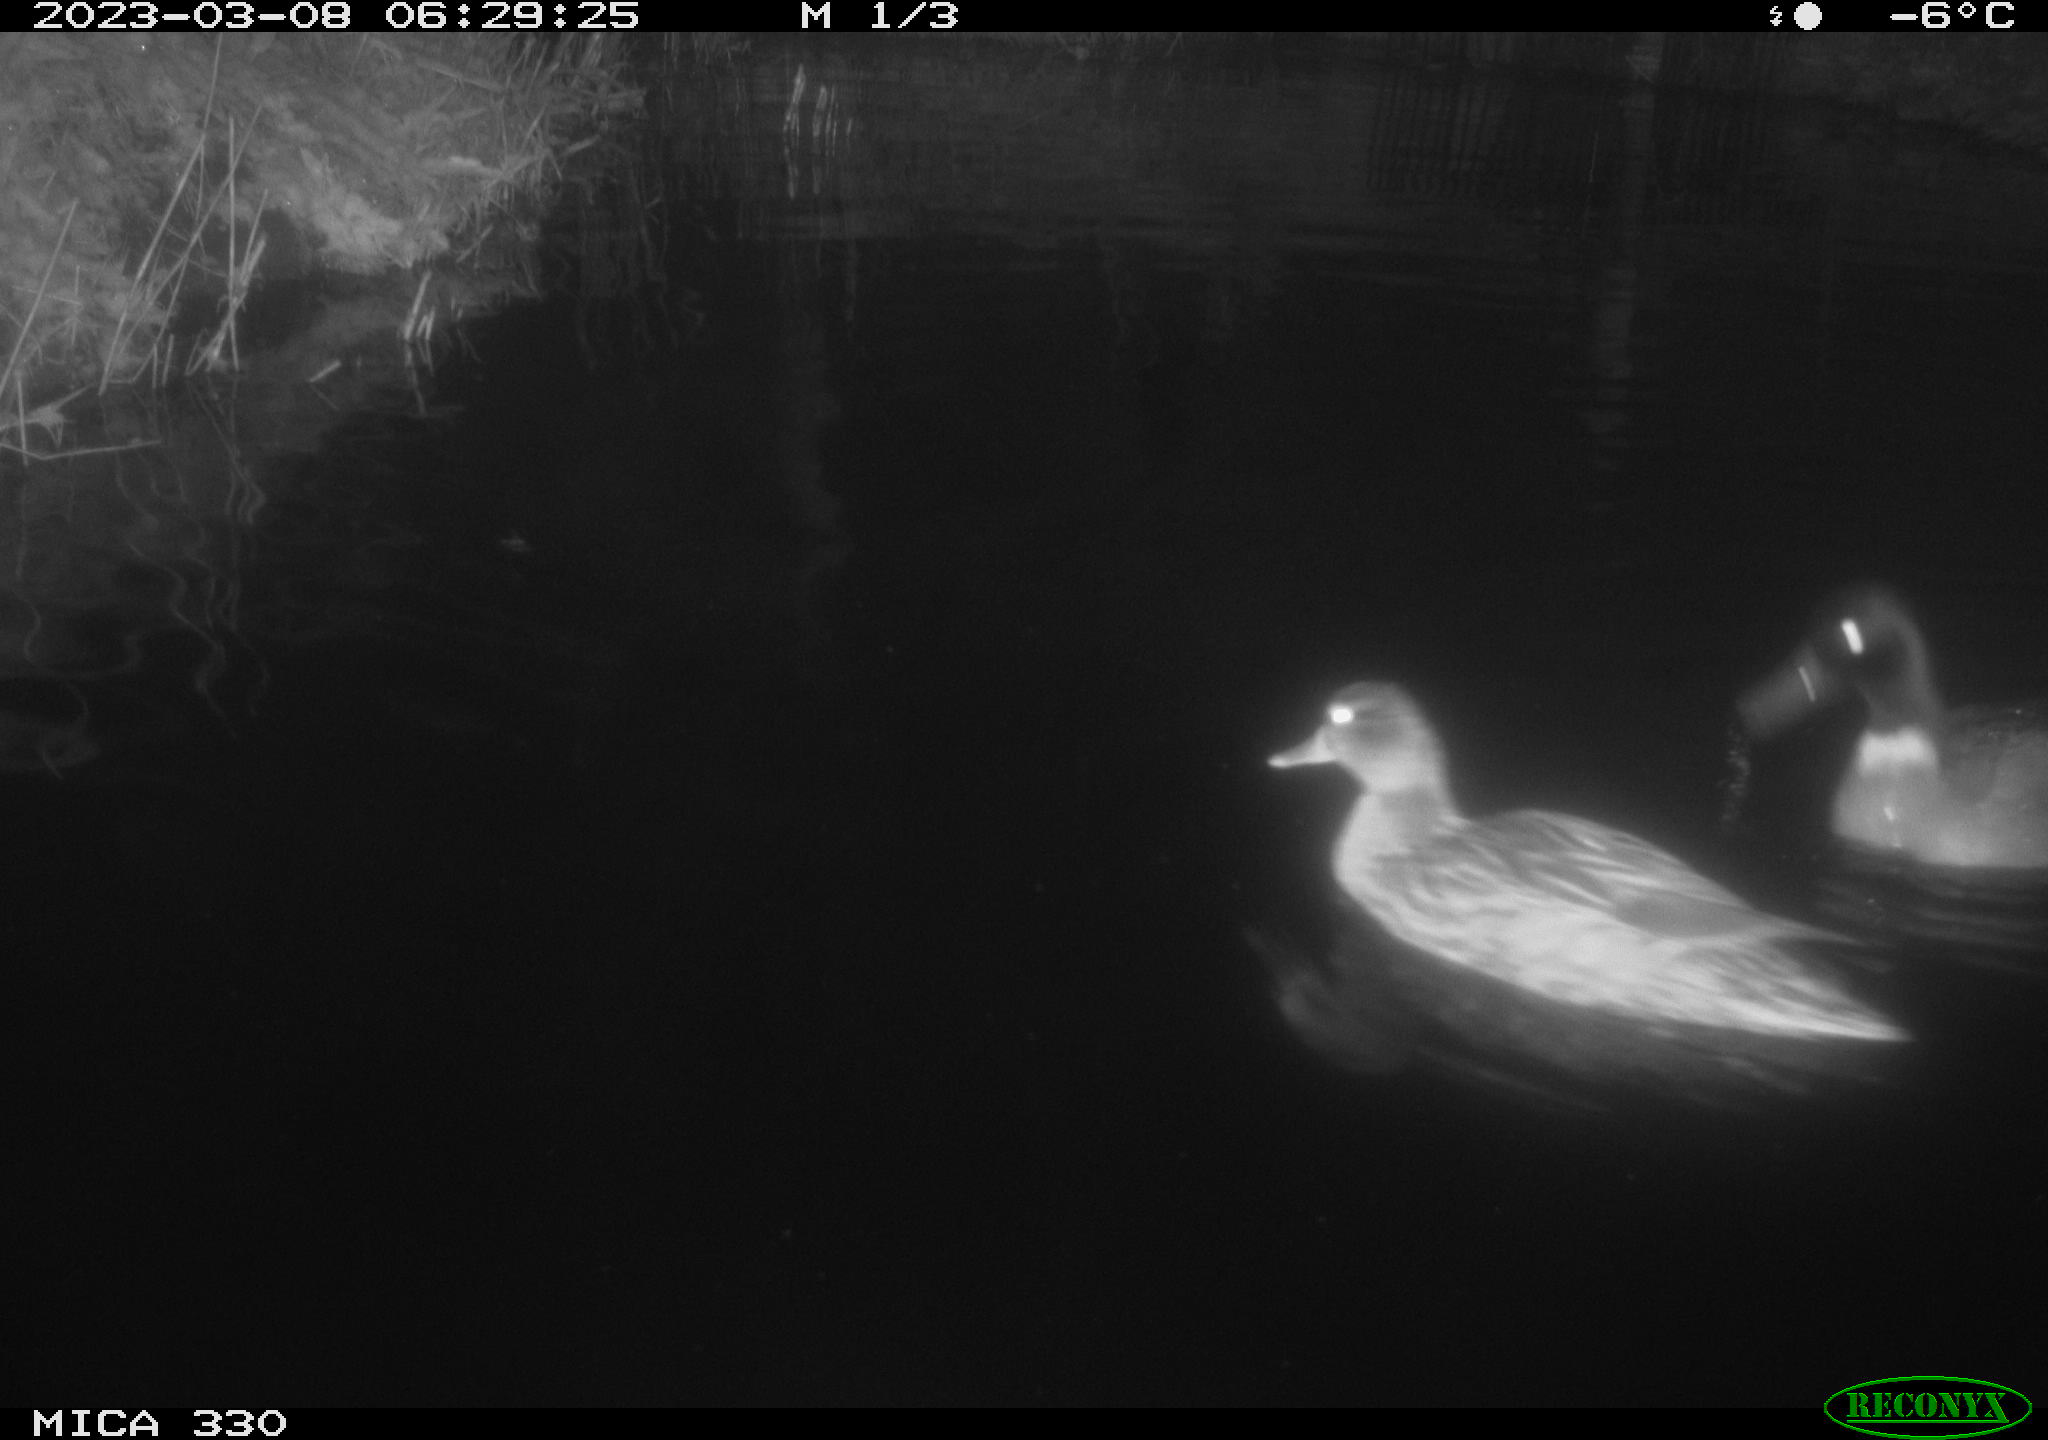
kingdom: Animalia
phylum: Chordata
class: Aves
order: Anseriformes
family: Anatidae
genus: Anas
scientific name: Anas
